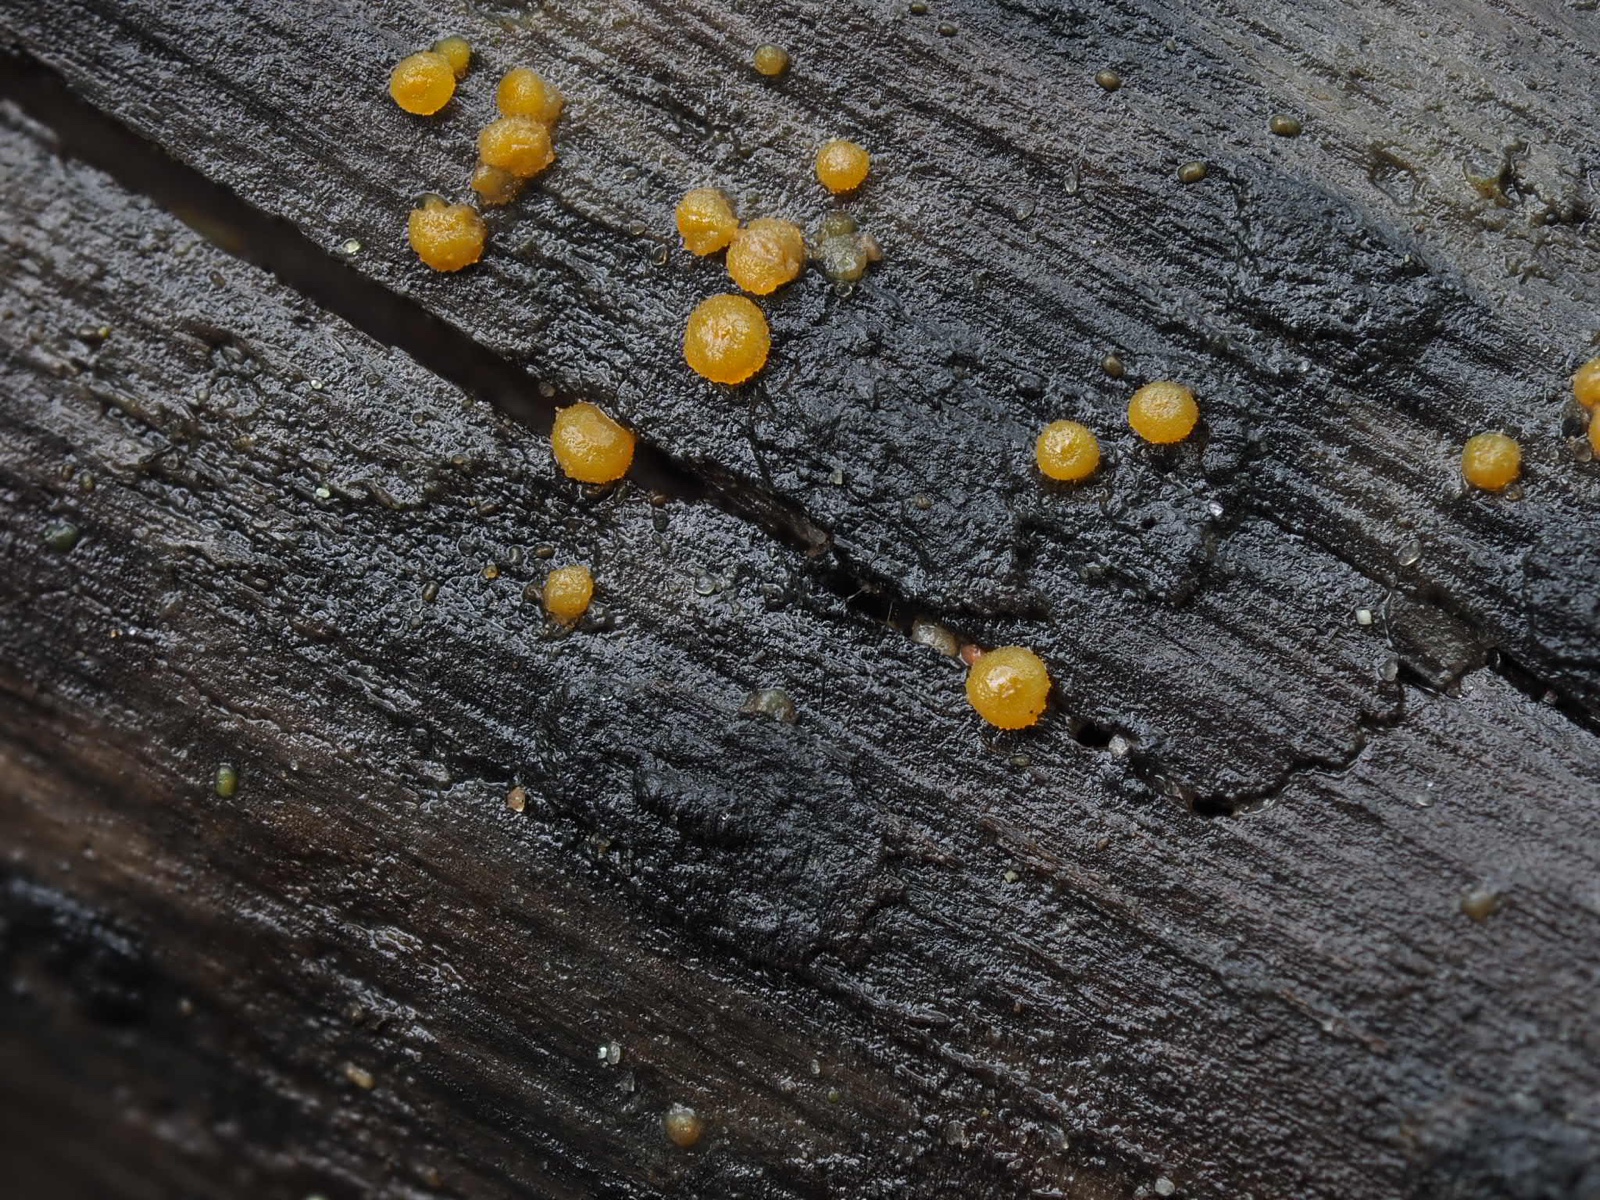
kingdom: Fungi
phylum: Ascomycota
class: Pezizomycetes
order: Pezizales
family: Pyronemataceae
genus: Miladina
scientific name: Miladina lecithina
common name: vandbæger
